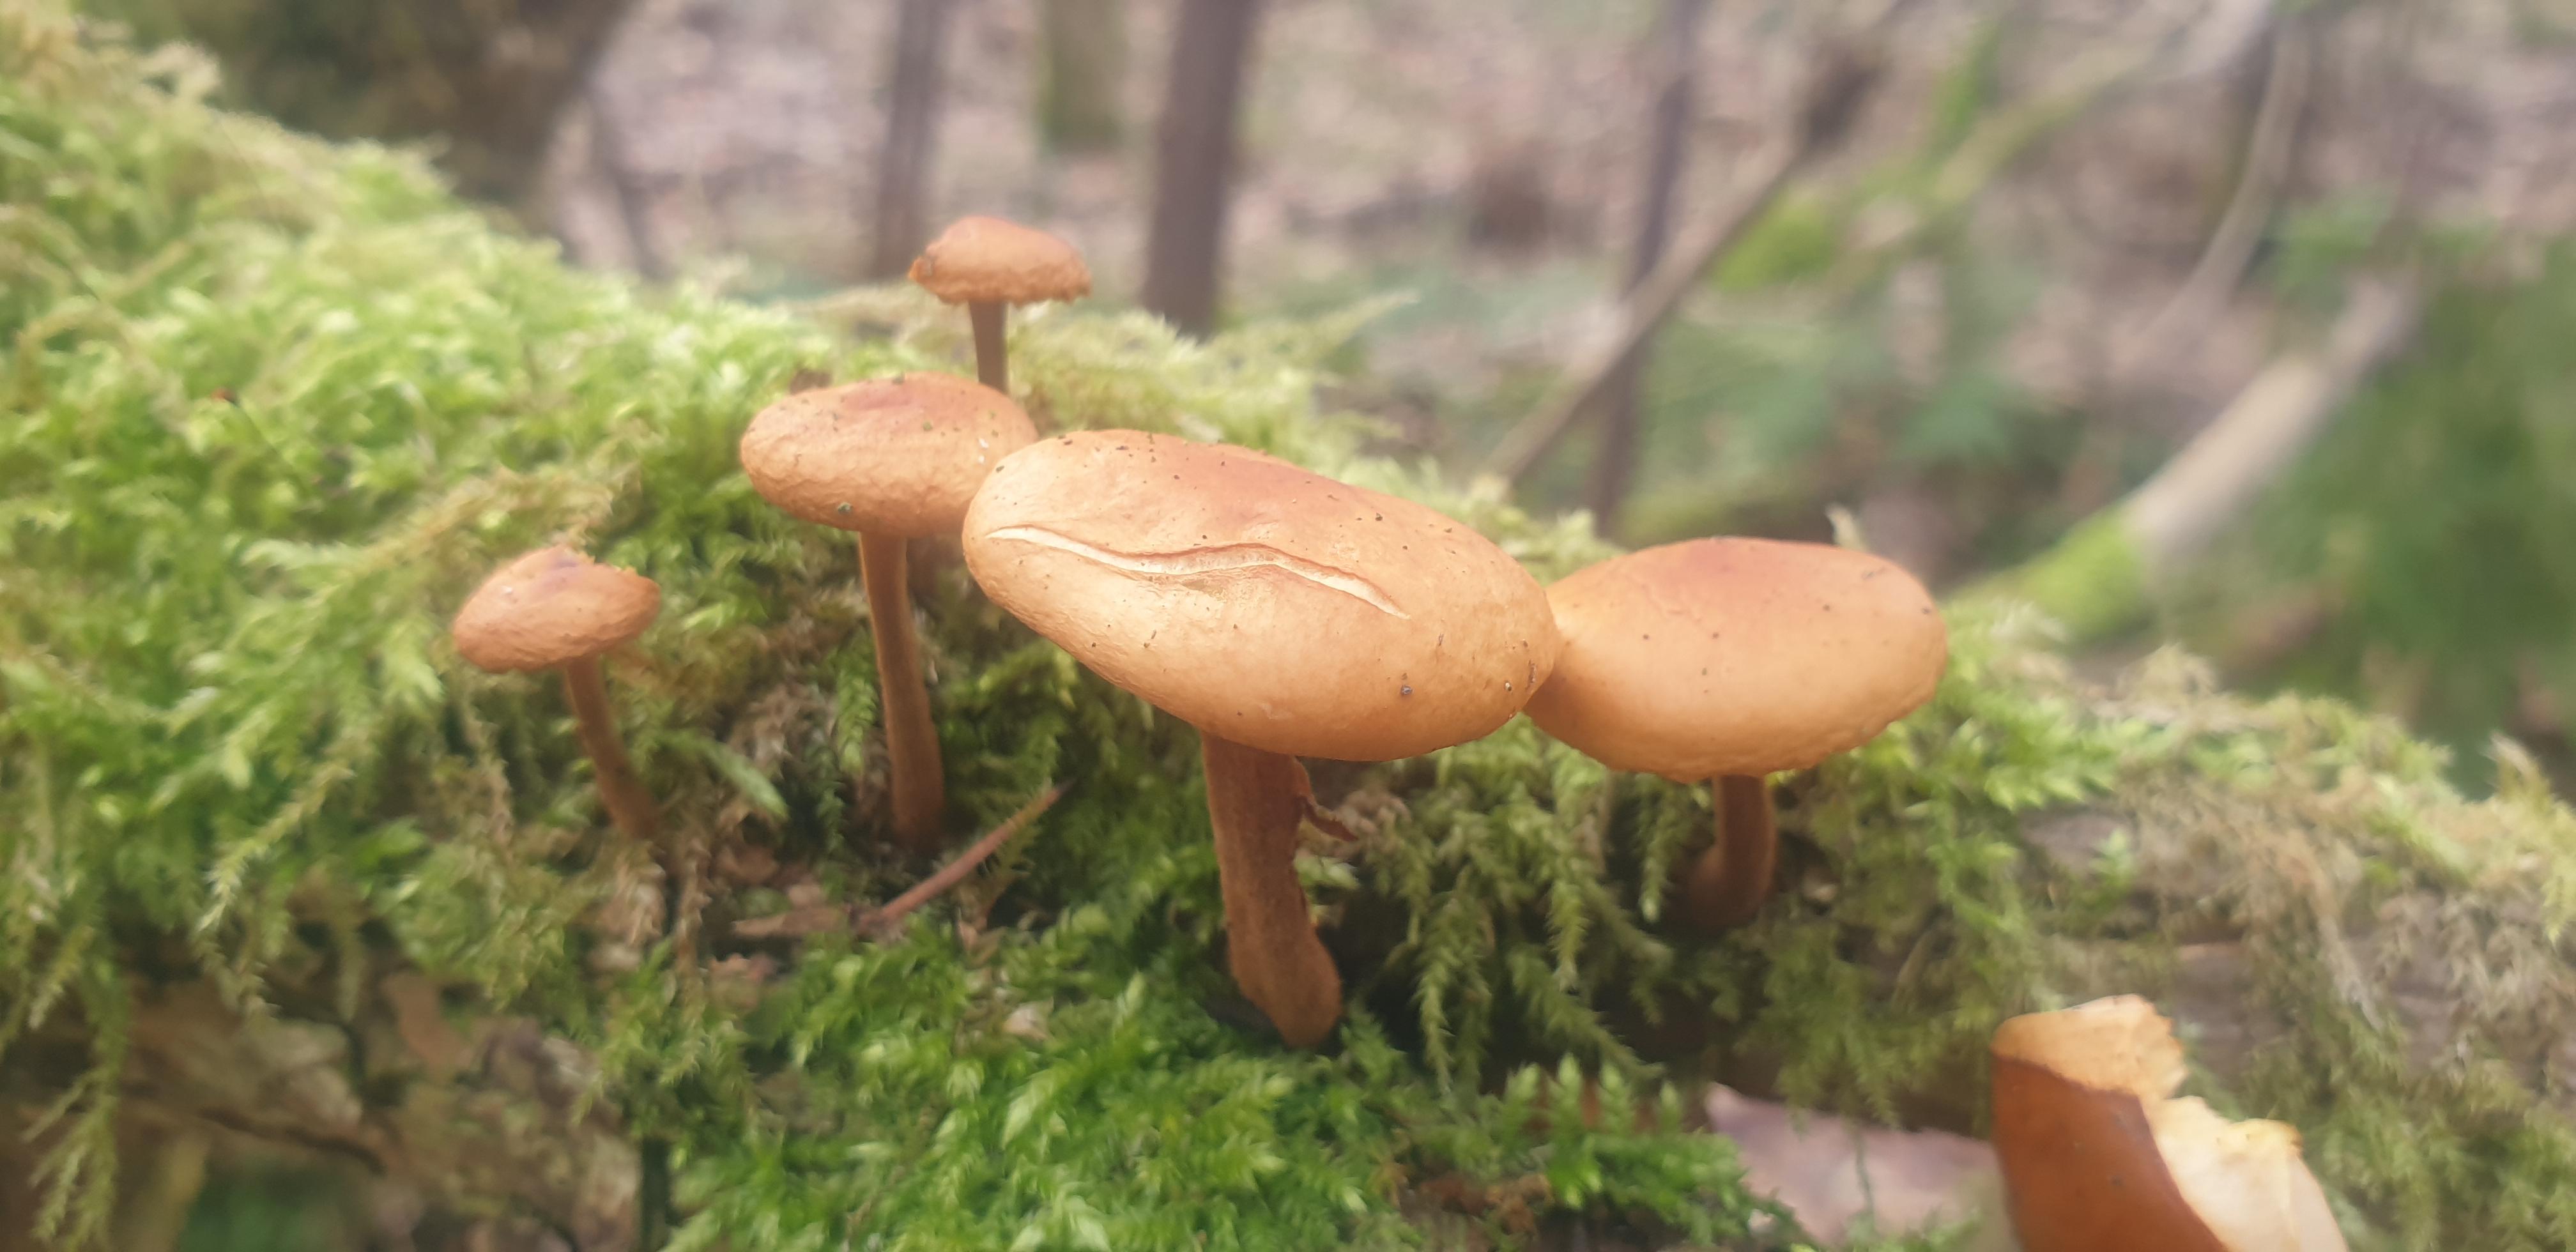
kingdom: Fungi
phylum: Basidiomycota
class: Agaricomycetes
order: Agaricales
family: Physalacriaceae
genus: Flammulina
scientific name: Flammulina
